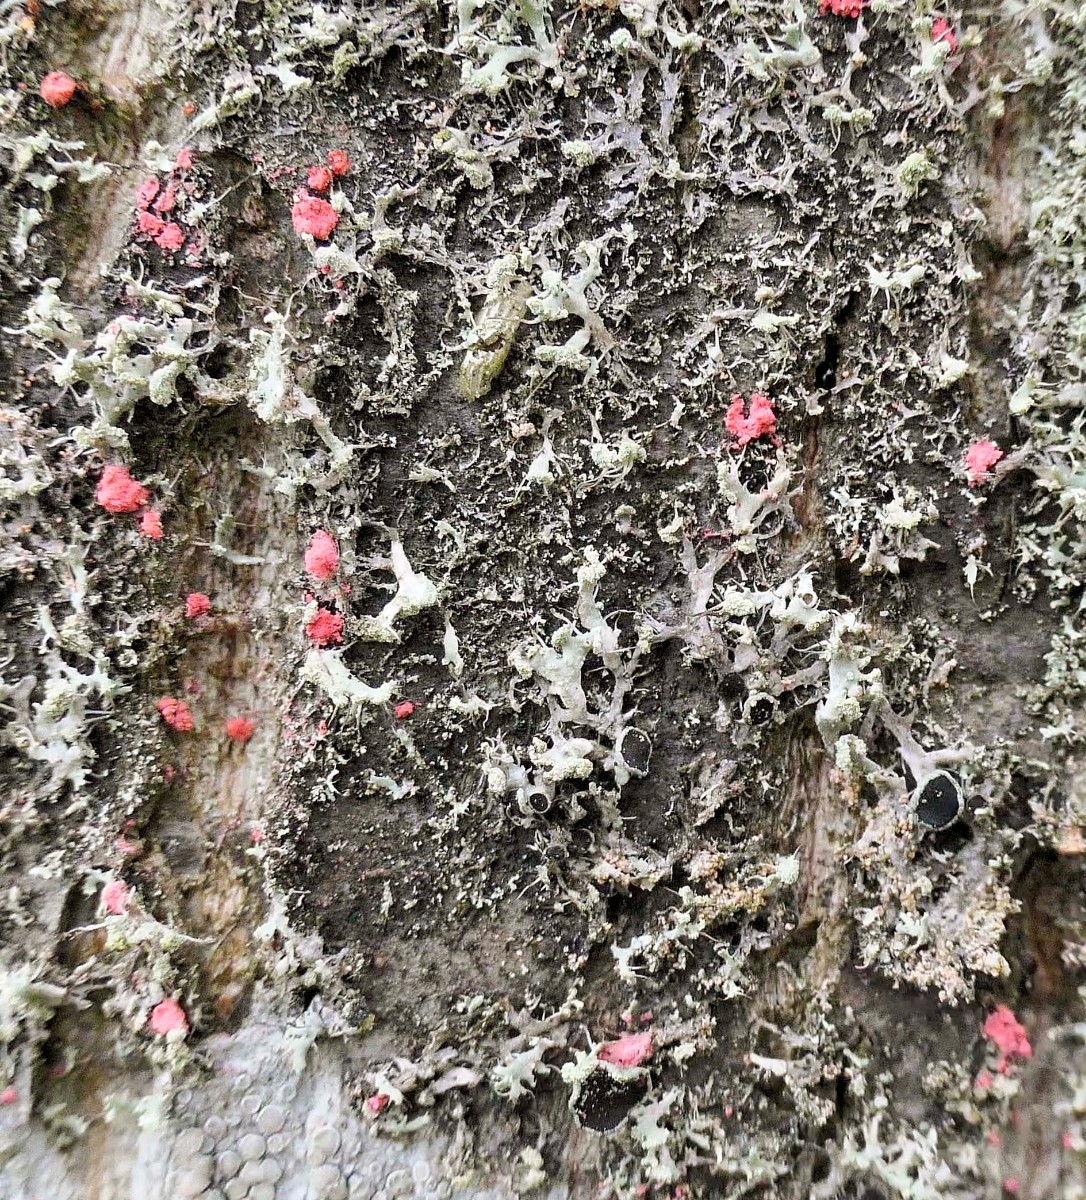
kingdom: Fungi
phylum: Ascomycota
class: Sordariomycetes
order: Hypocreales
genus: Illosporiopsis
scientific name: Illosporiopsis christiansenii
